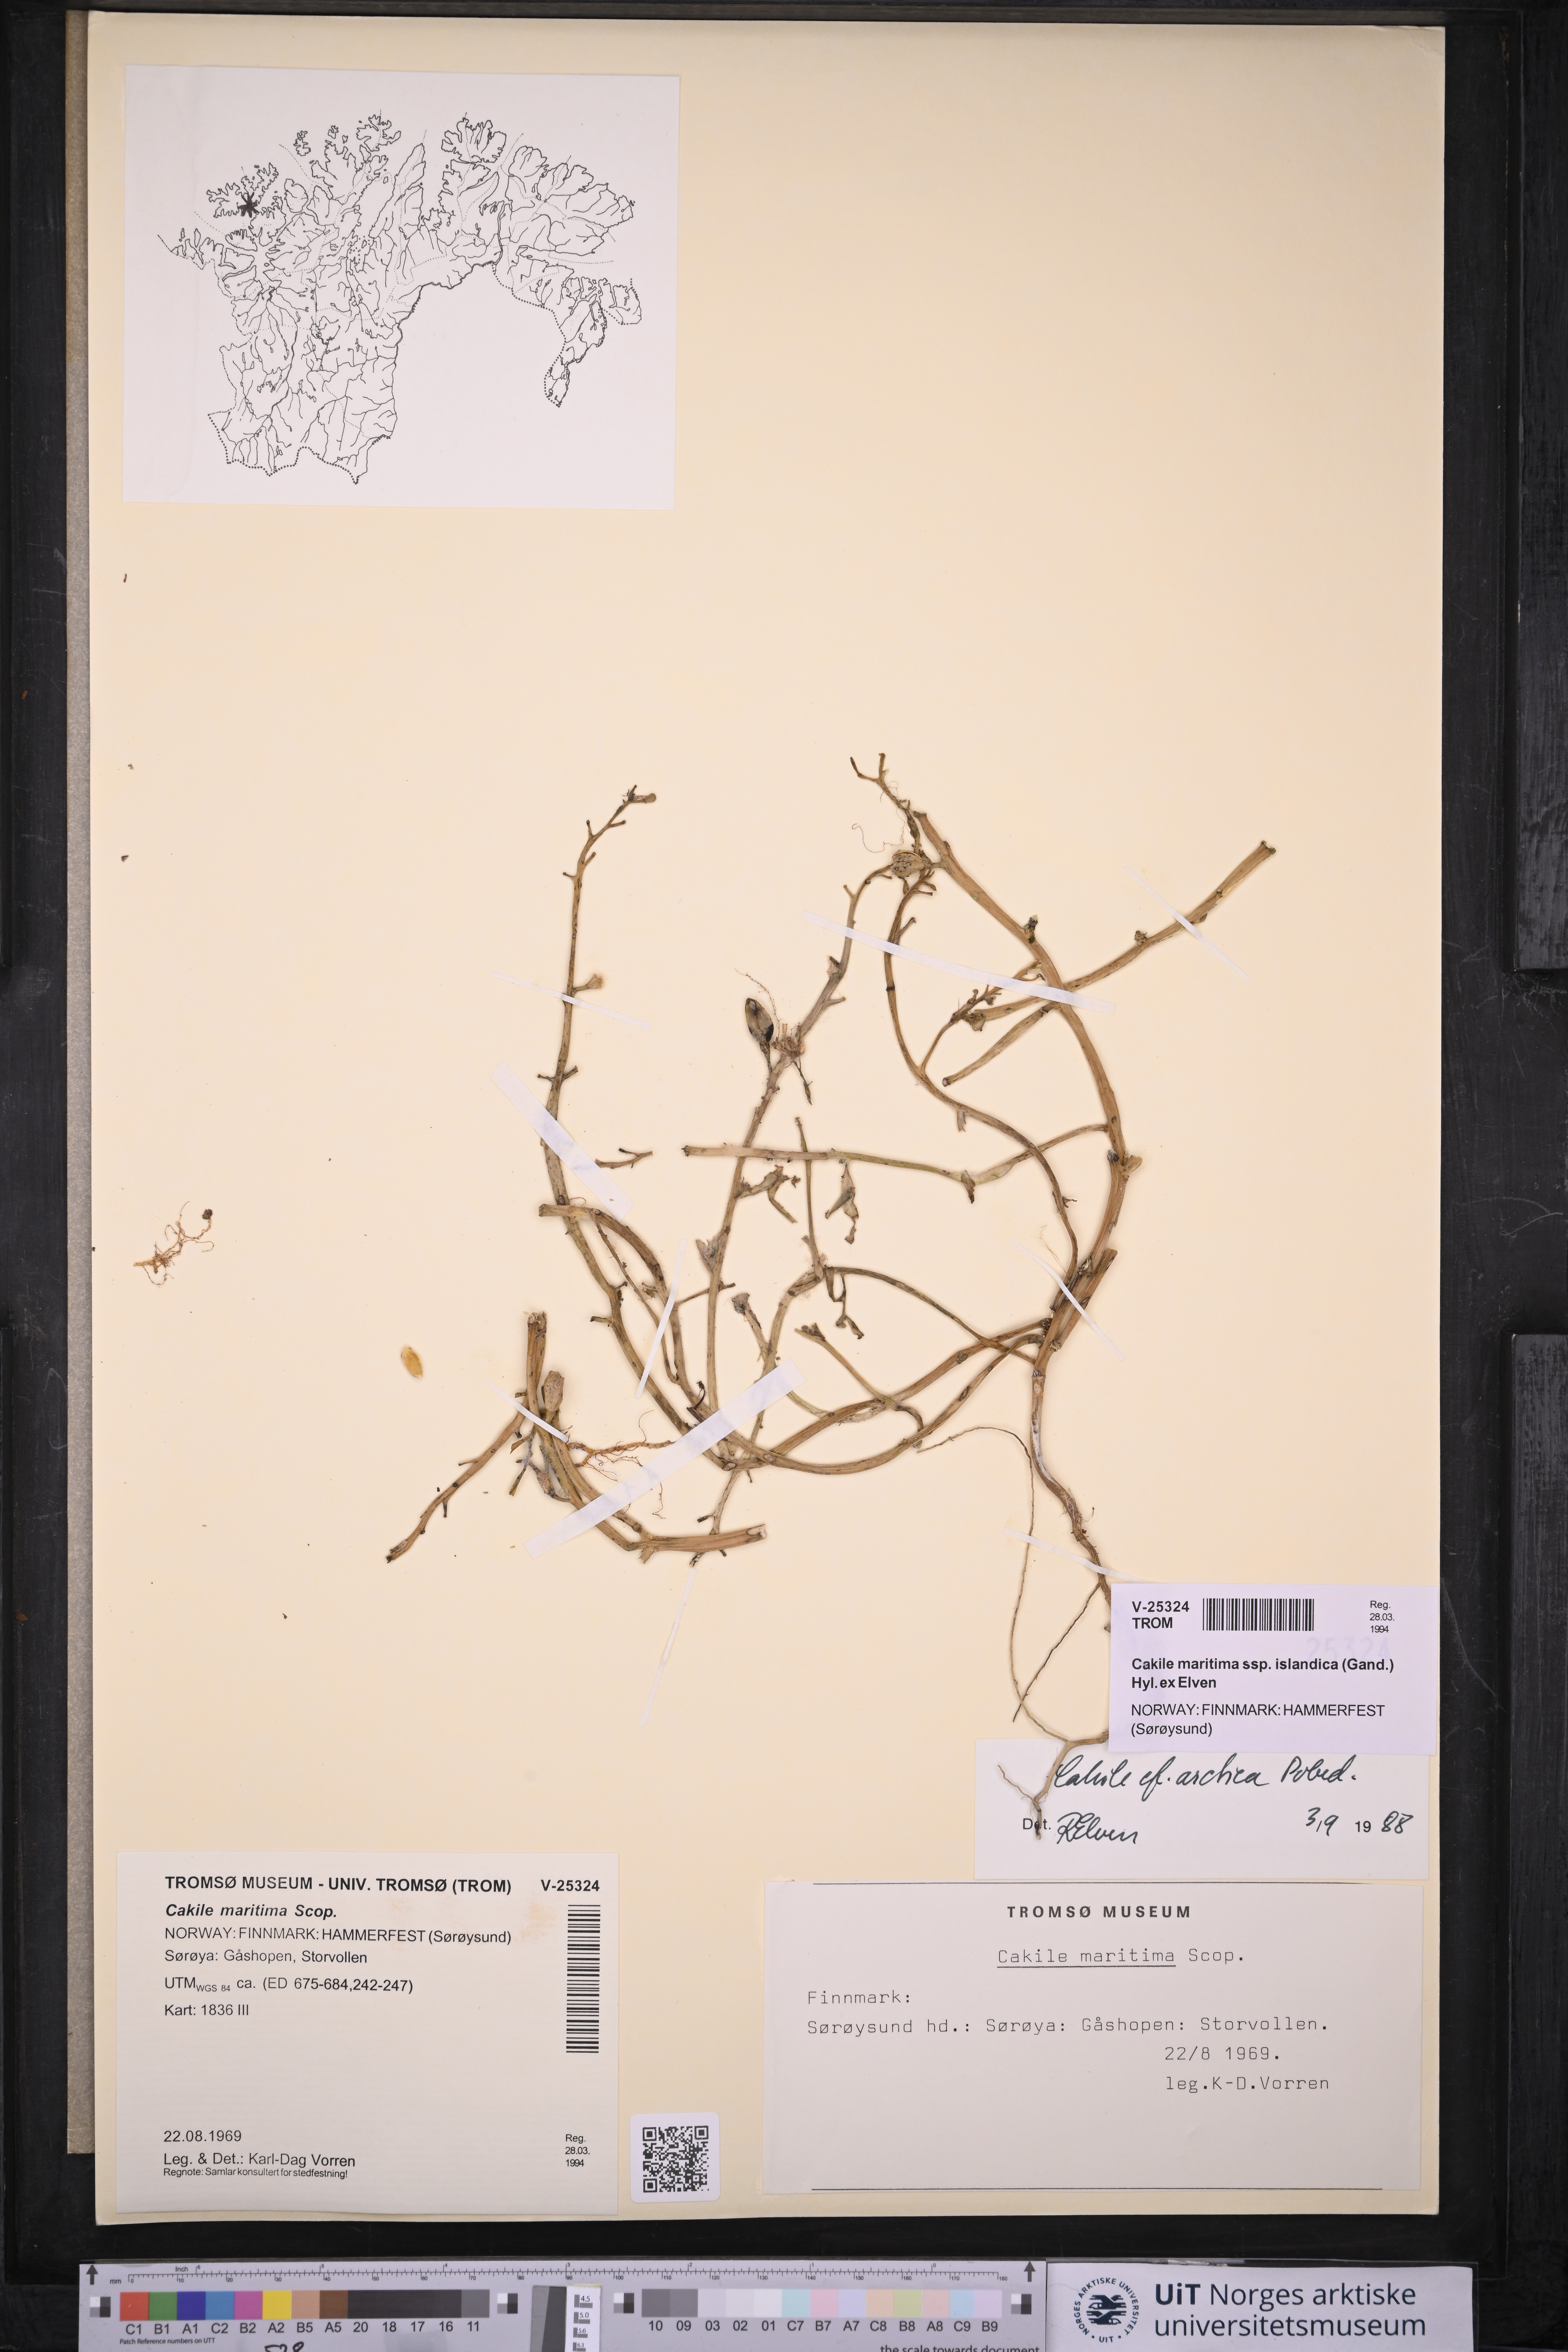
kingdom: Plantae
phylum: Tracheophyta
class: Magnoliopsida
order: Brassicales
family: Brassicaceae
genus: Cakile
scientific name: Cakile arctica
